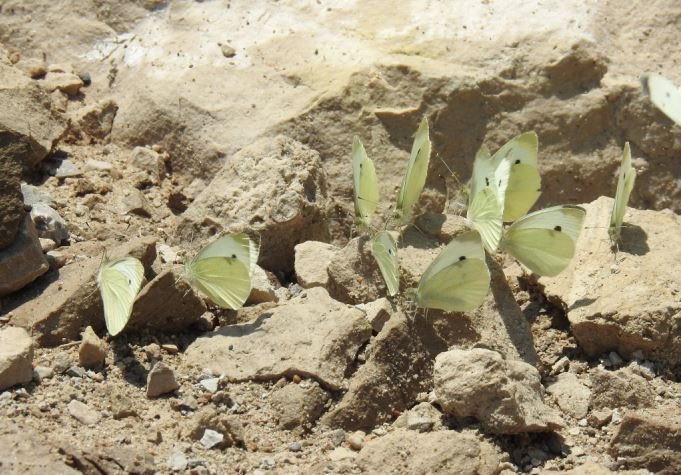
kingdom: Animalia
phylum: Arthropoda
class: Insecta
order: Lepidoptera
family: Pieridae
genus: Pieris
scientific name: Pieris rapae
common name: Cabbage White
